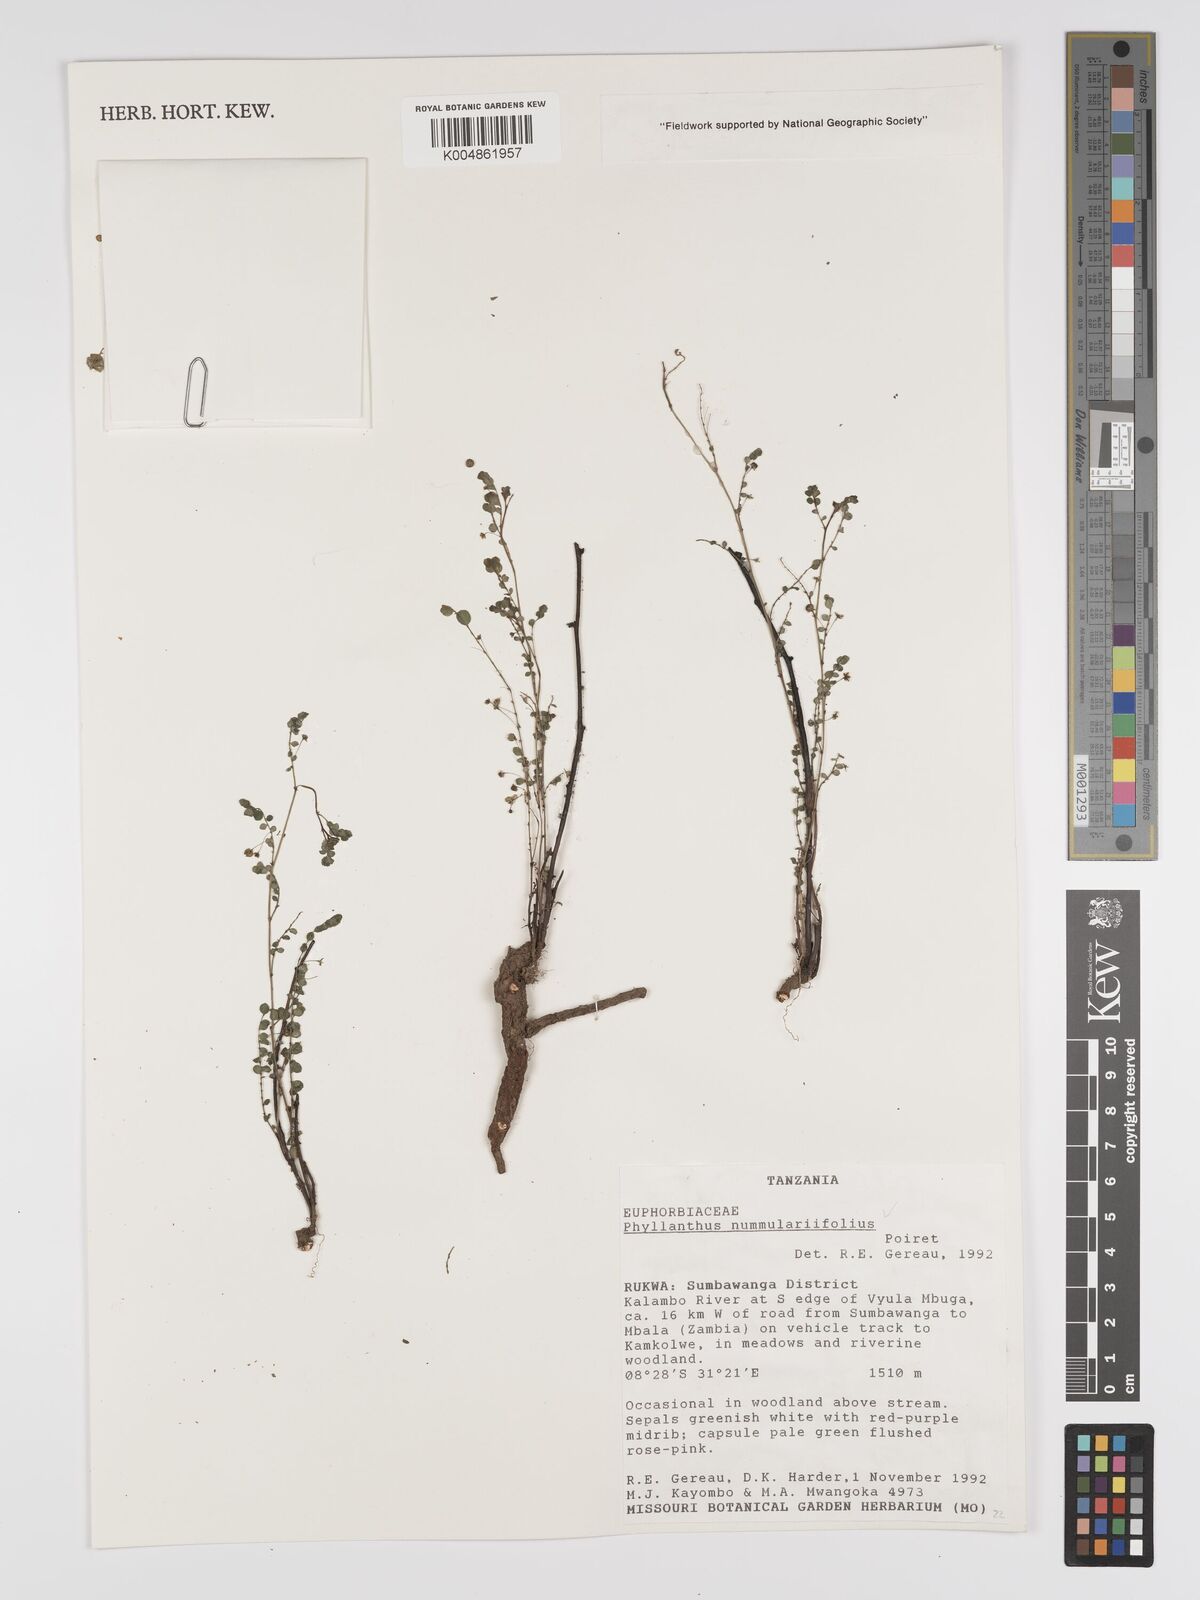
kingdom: Plantae
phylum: Tracheophyta
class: Magnoliopsida
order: Malpighiales
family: Phyllanthaceae
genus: Phyllanthus
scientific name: Phyllanthus nummulariifolius
